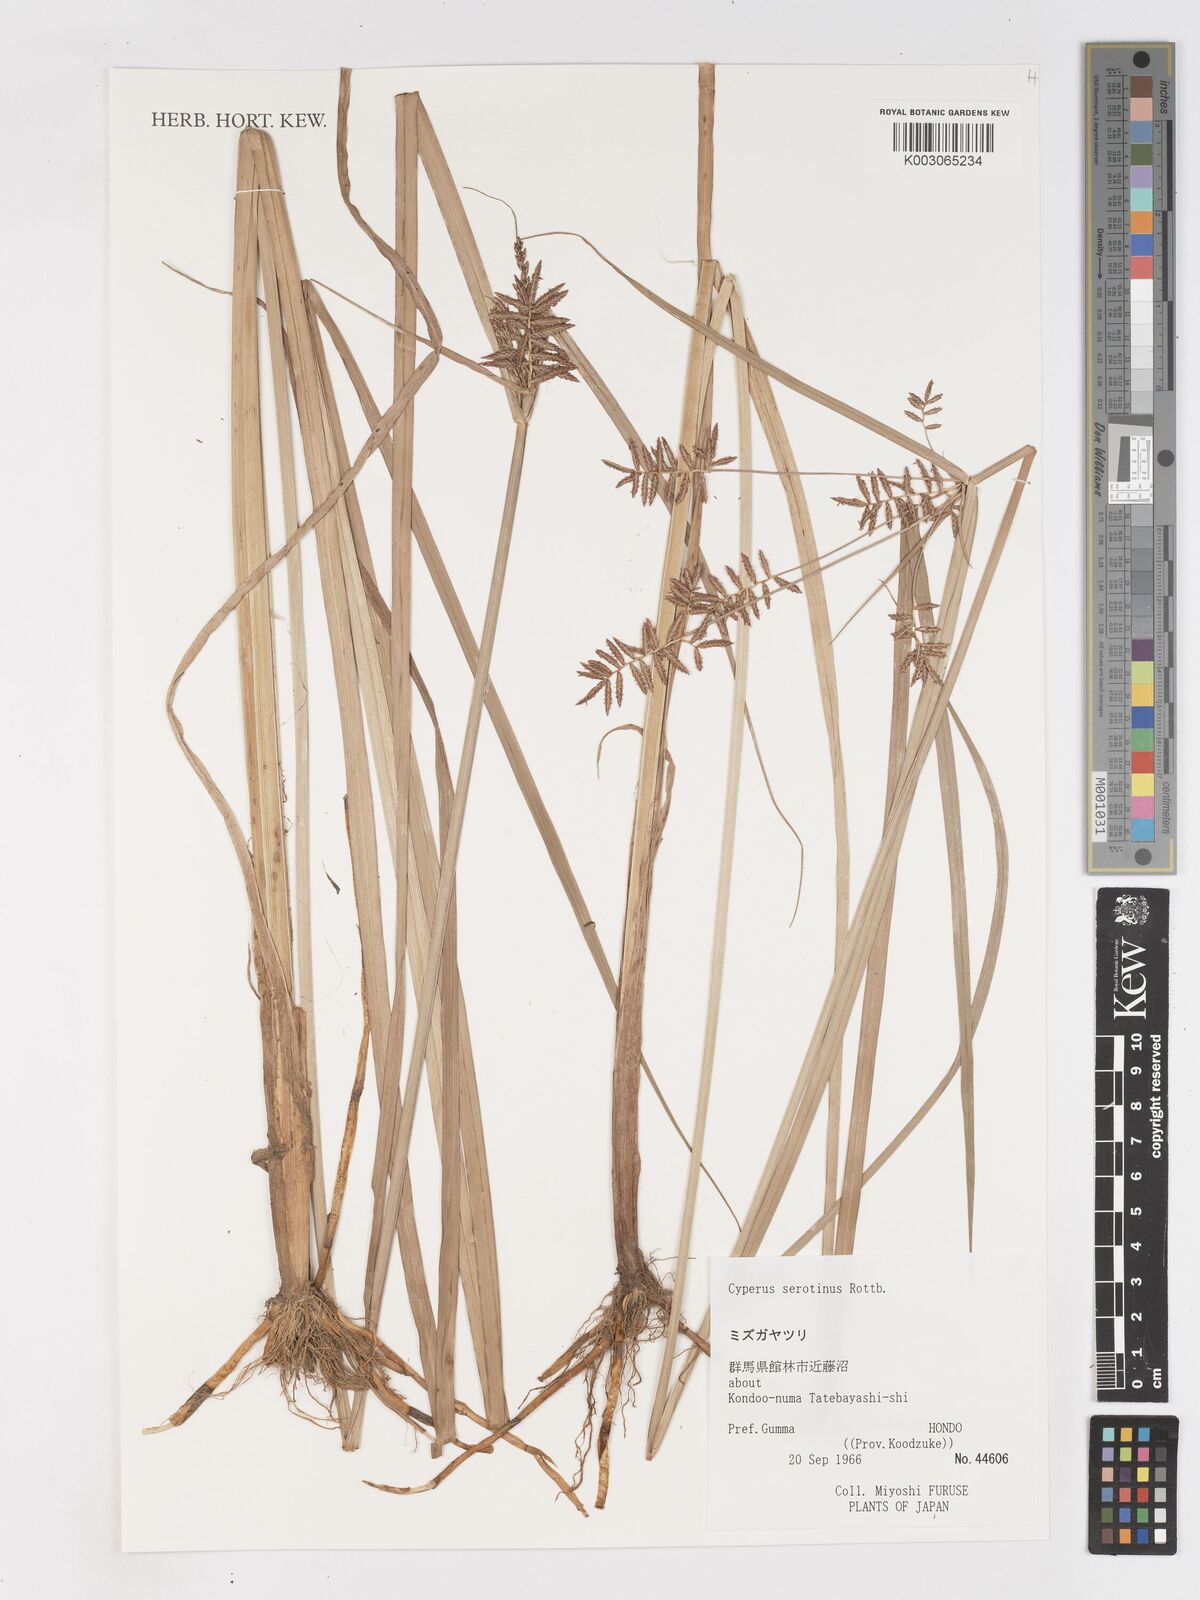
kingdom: Plantae
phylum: Tracheophyta
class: Liliopsida
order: Poales
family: Cyperaceae
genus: Cyperus
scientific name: Cyperus serotinus
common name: Tidalmarsh flatsedge
